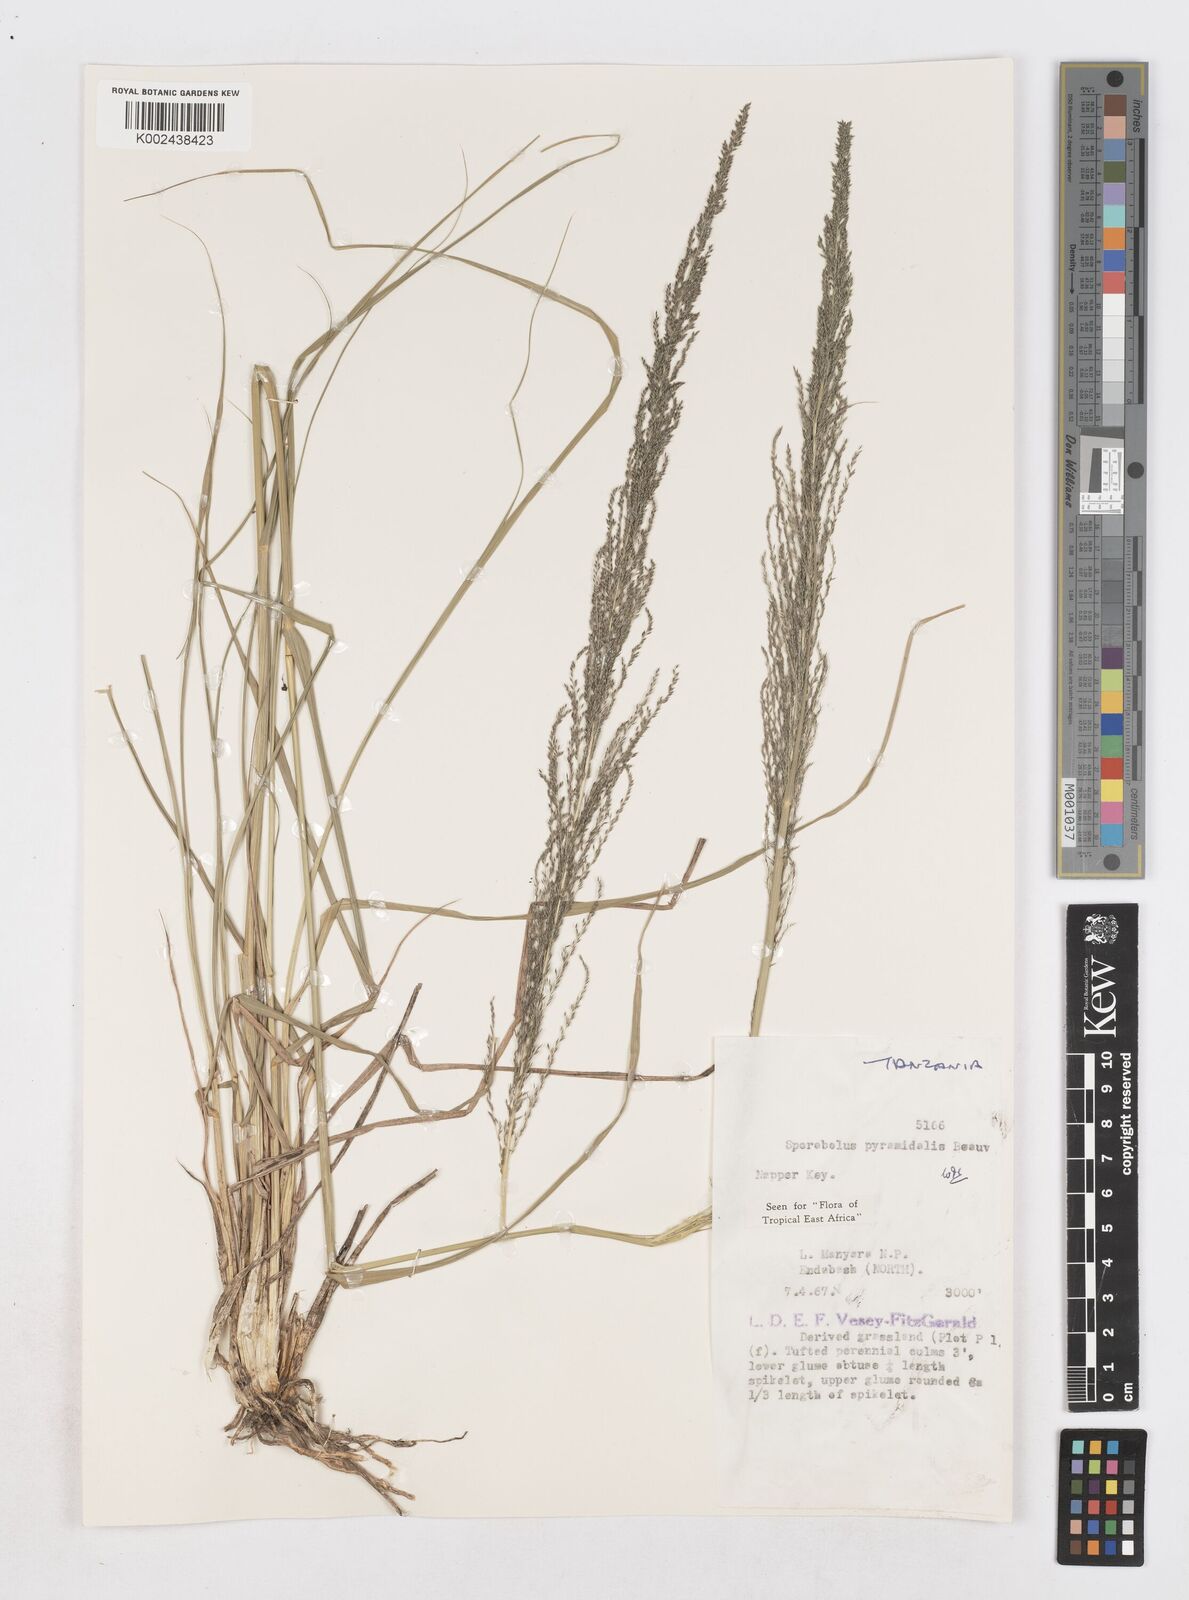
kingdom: Plantae
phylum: Tracheophyta
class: Liliopsida
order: Poales
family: Poaceae
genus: Sporobolus
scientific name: Sporobolus pyramidalis
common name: West indian dropseed
